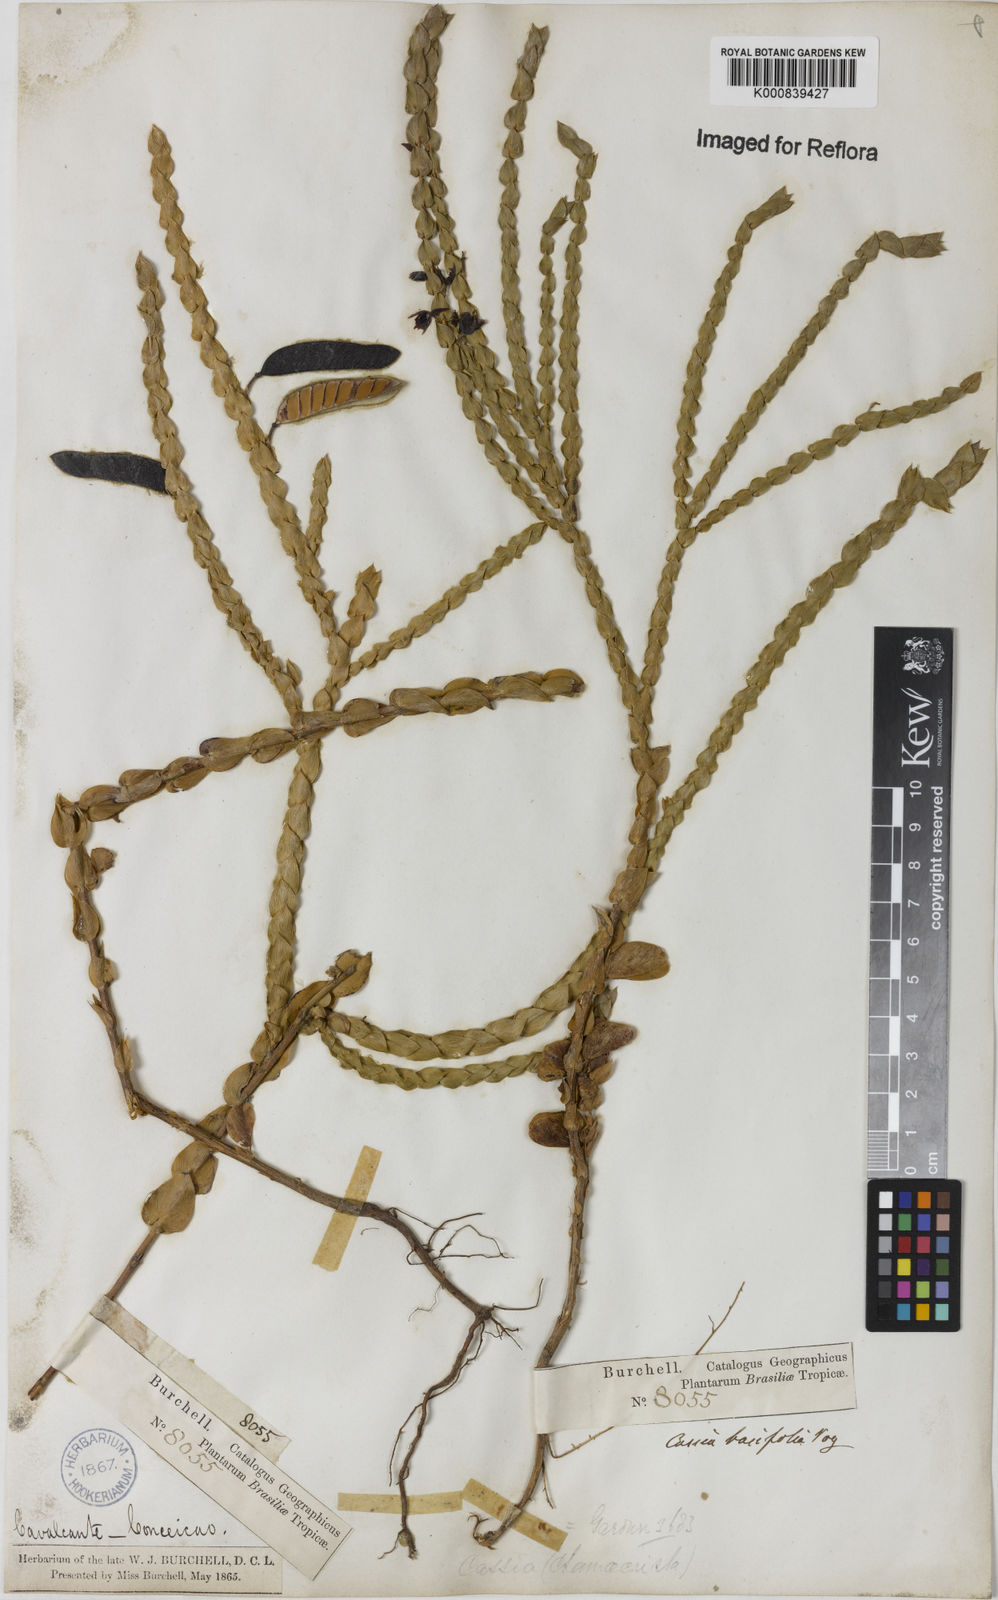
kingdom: Plantae
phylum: Tracheophyta
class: Magnoliopsida
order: Fabales
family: Fabaceae
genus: Chamaecrista
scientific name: Chamaecrista basifolia
